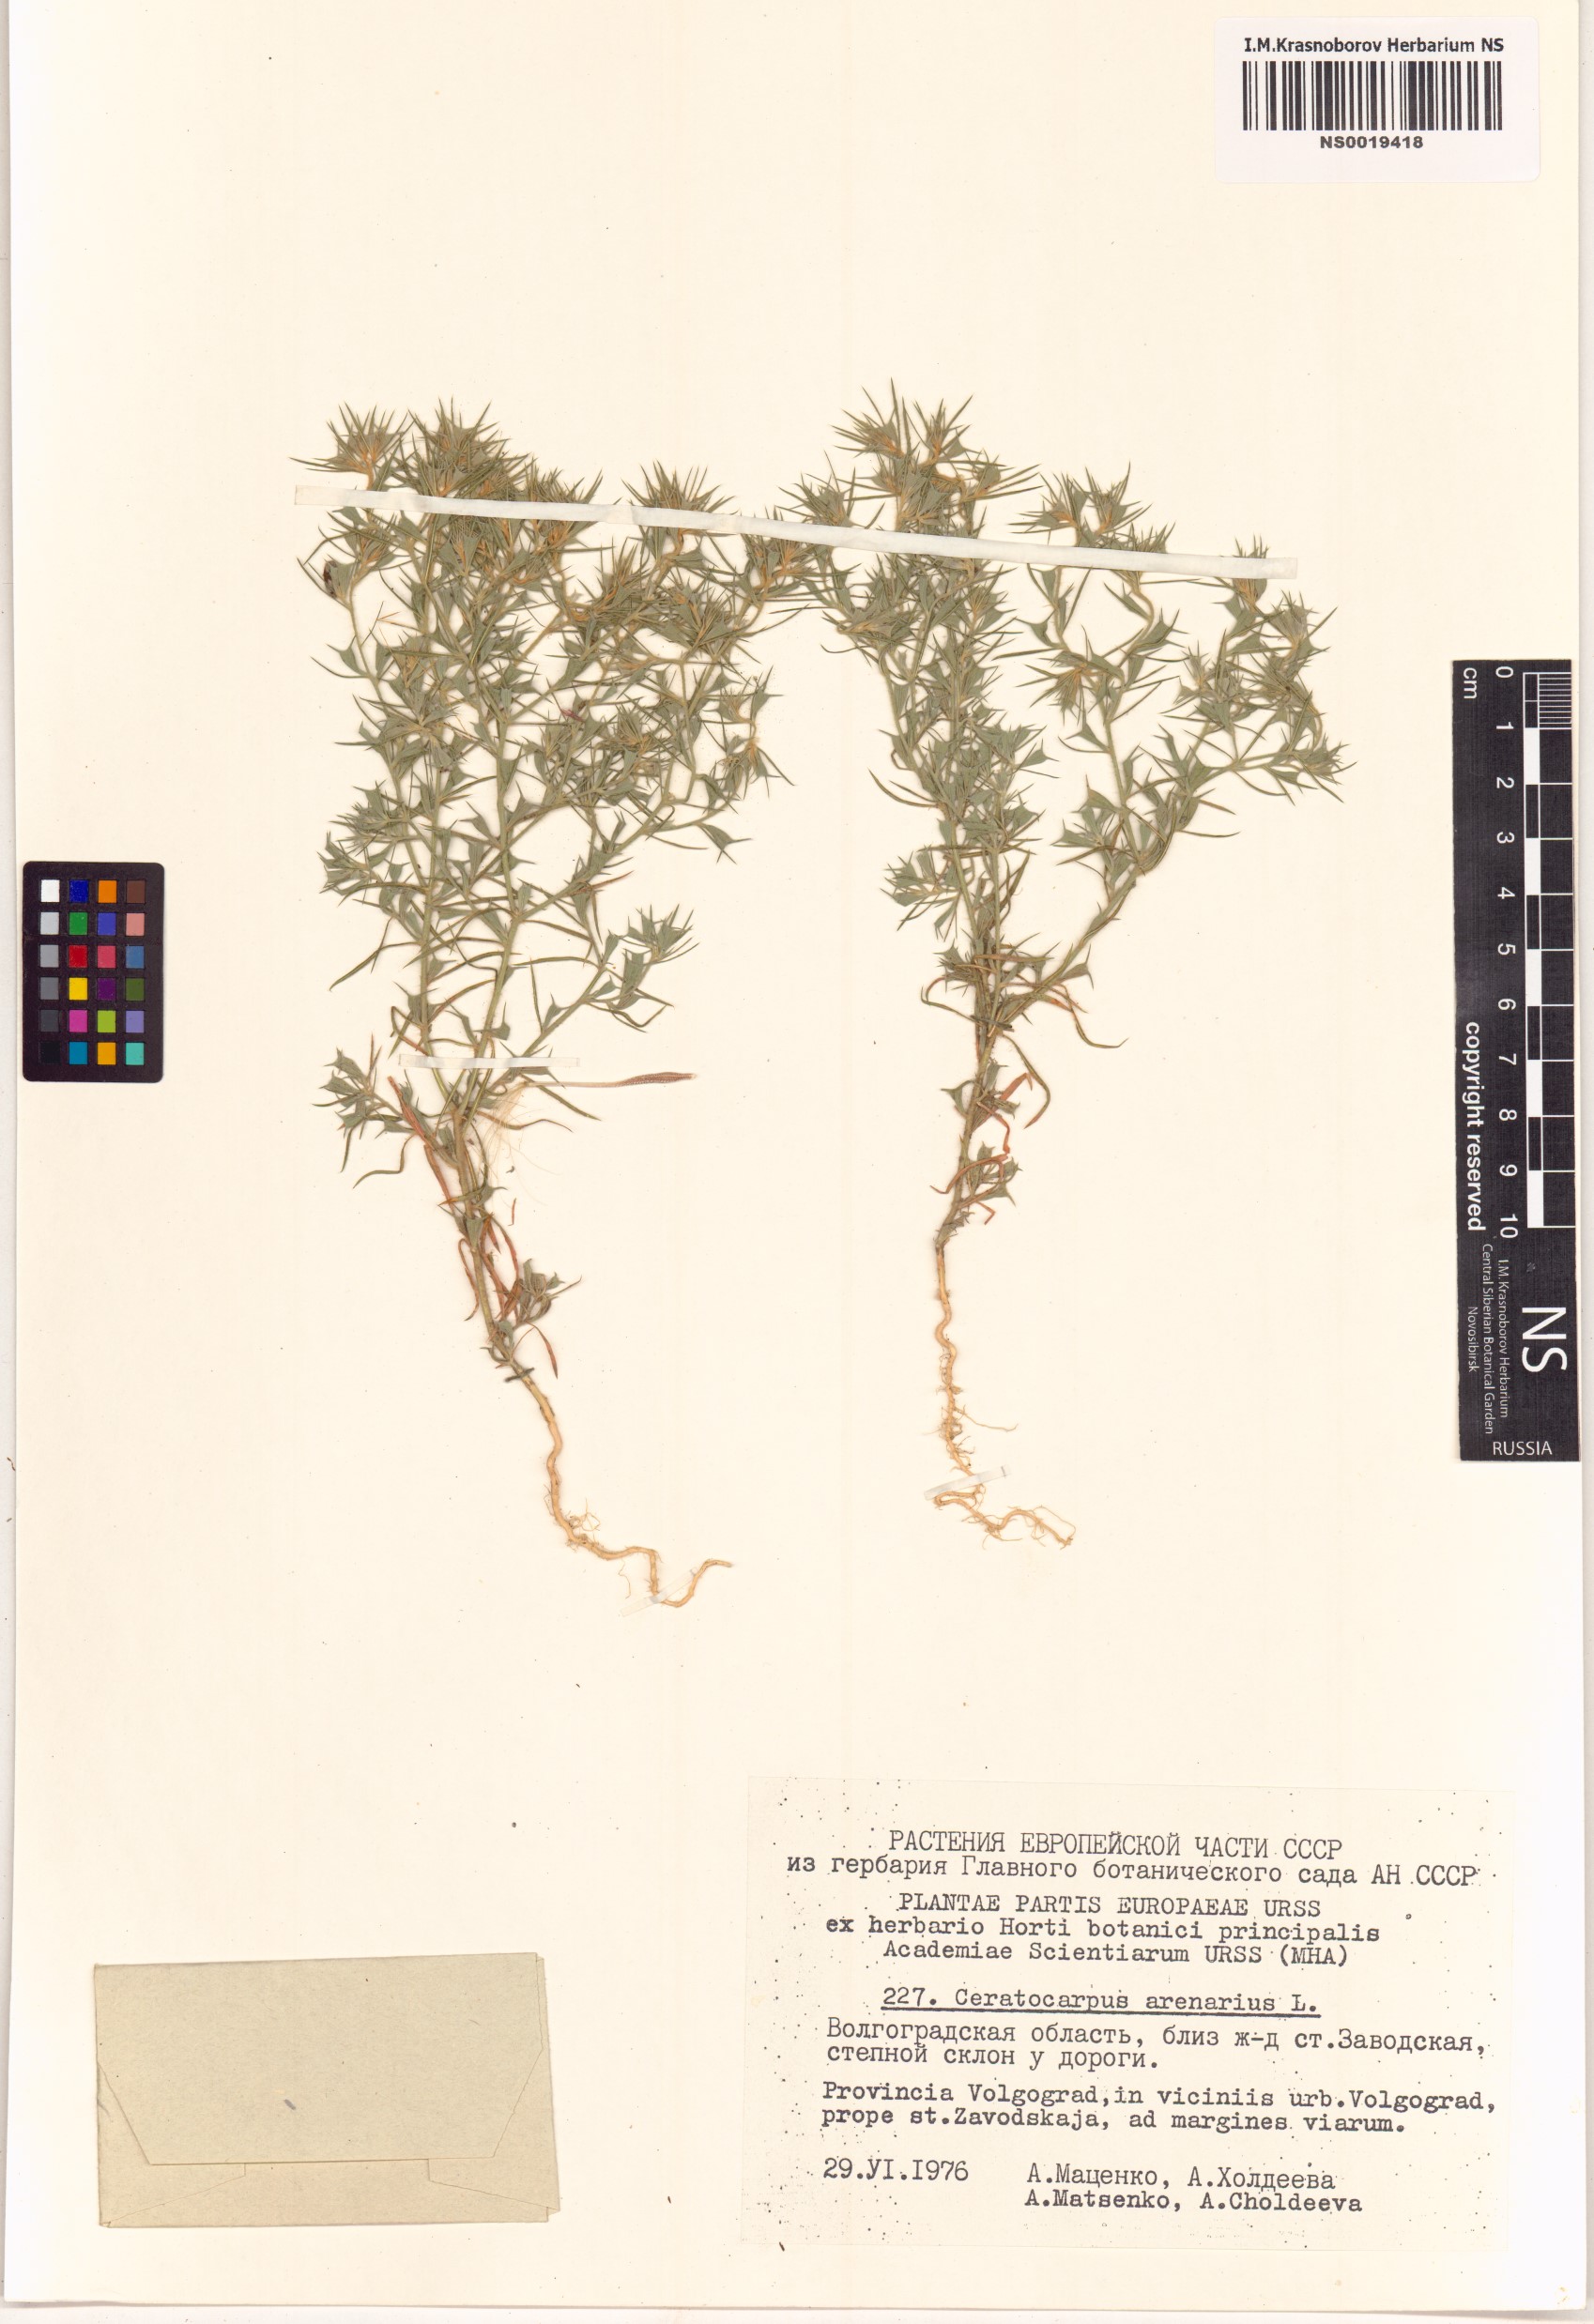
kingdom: Plantae
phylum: Tracheophyta
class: Magnoliopsida
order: Caryophyllales
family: Amaranthaceae
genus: Ceratocarpus
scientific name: Ceratocarpus arenarius
